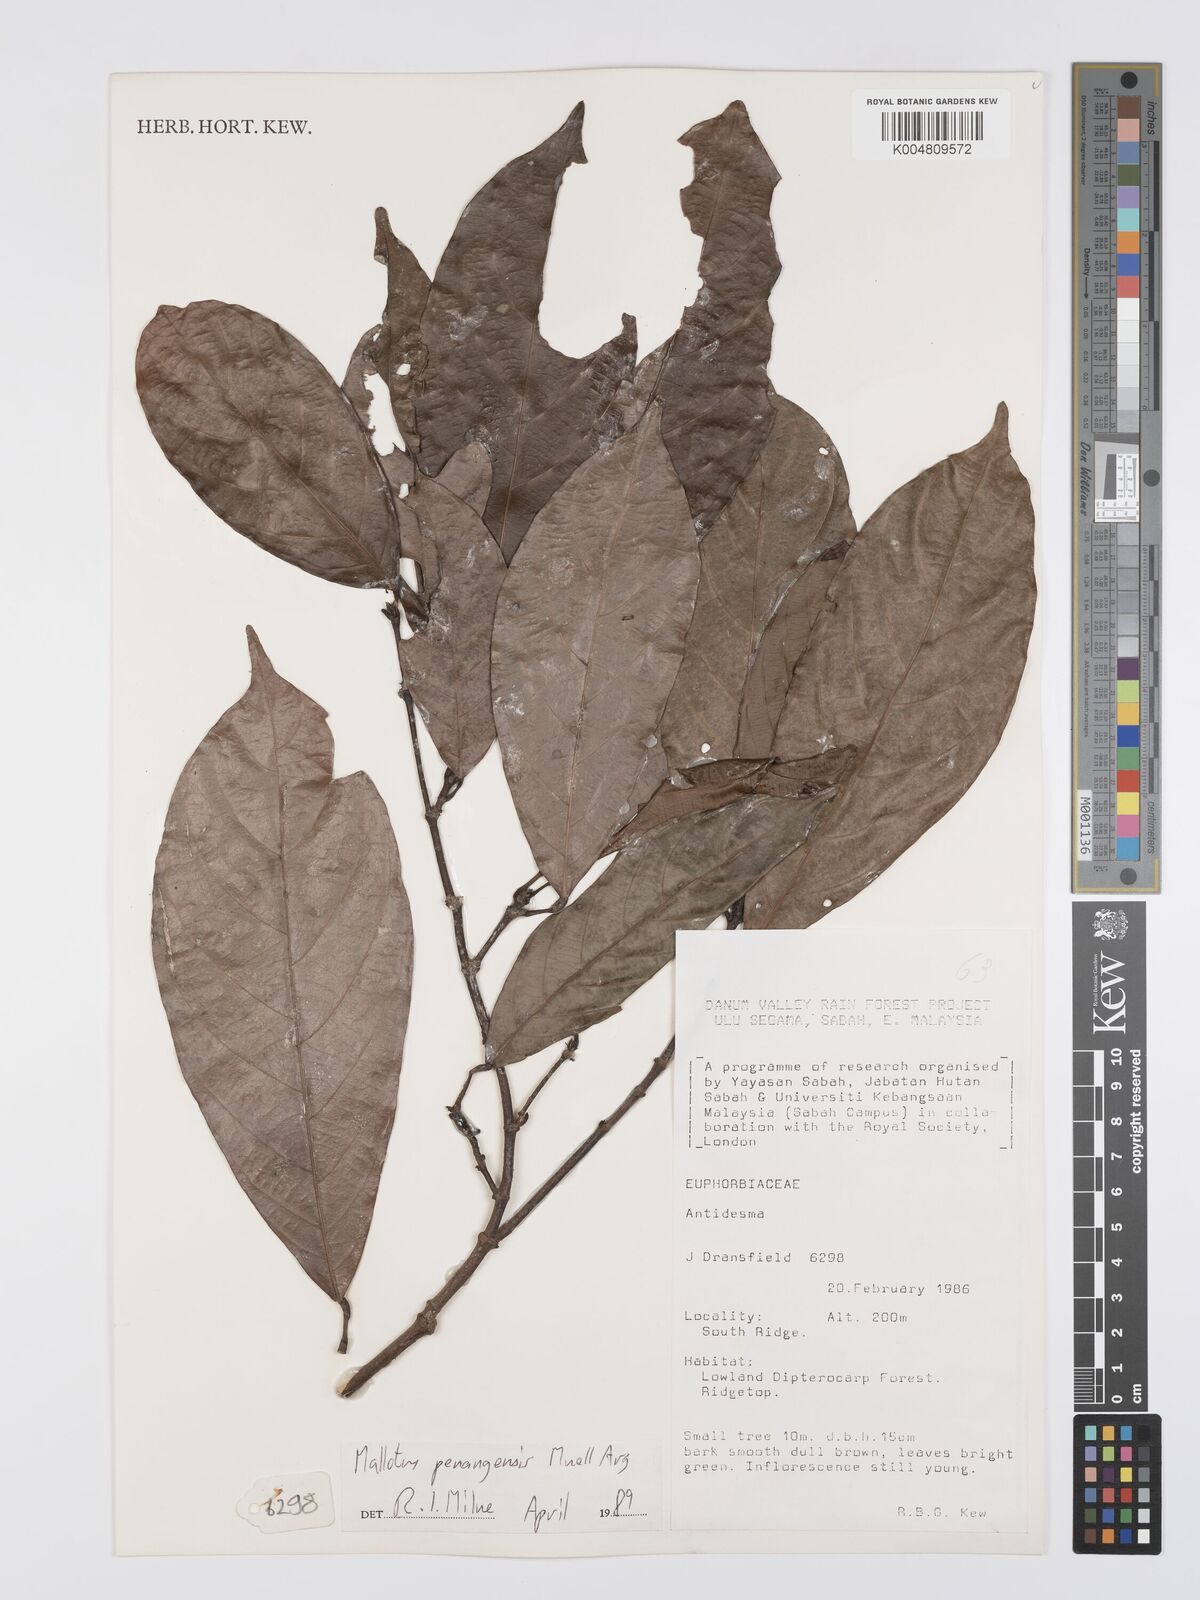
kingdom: Plantae
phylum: Tracheophyta
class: Magnoliopsida
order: Malpighiales
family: Euphorbiaceae
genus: Hancea
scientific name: Hancea penangensis
